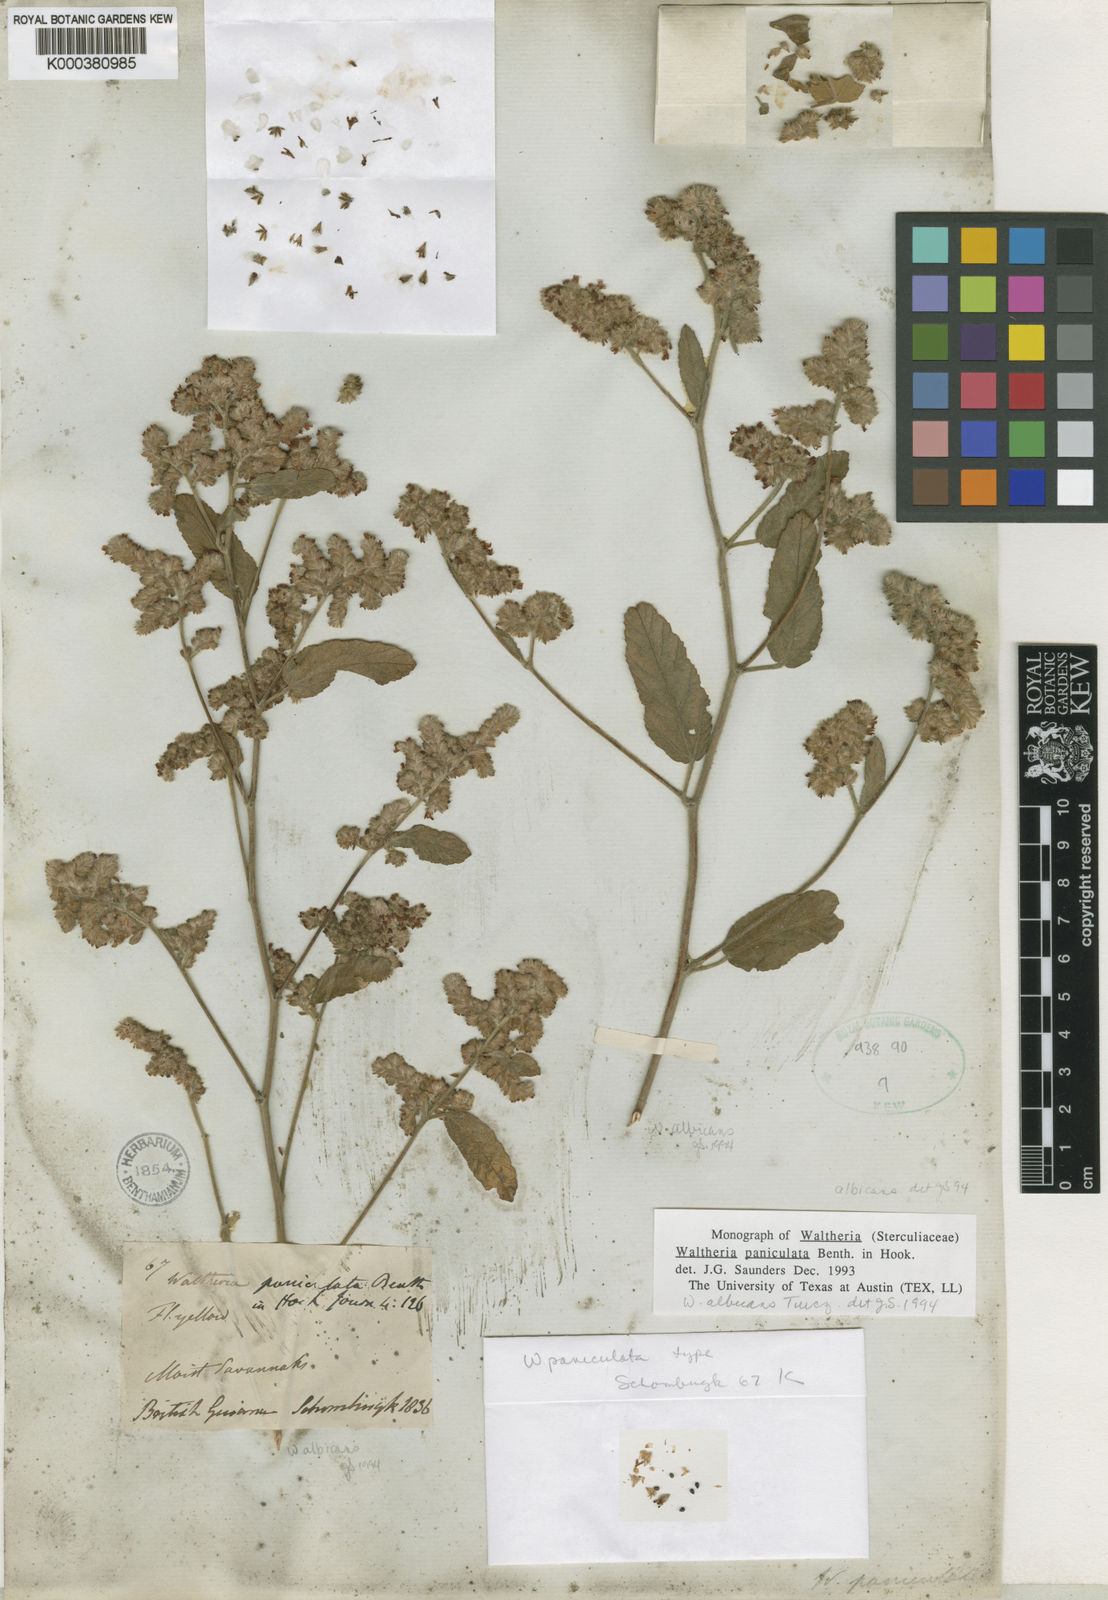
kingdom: Plantae
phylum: Tracheophyta
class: Magnoliopsida
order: Malvales
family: Malvaceae
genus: Waltheria
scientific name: Waltheria indica
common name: Leather-coat
